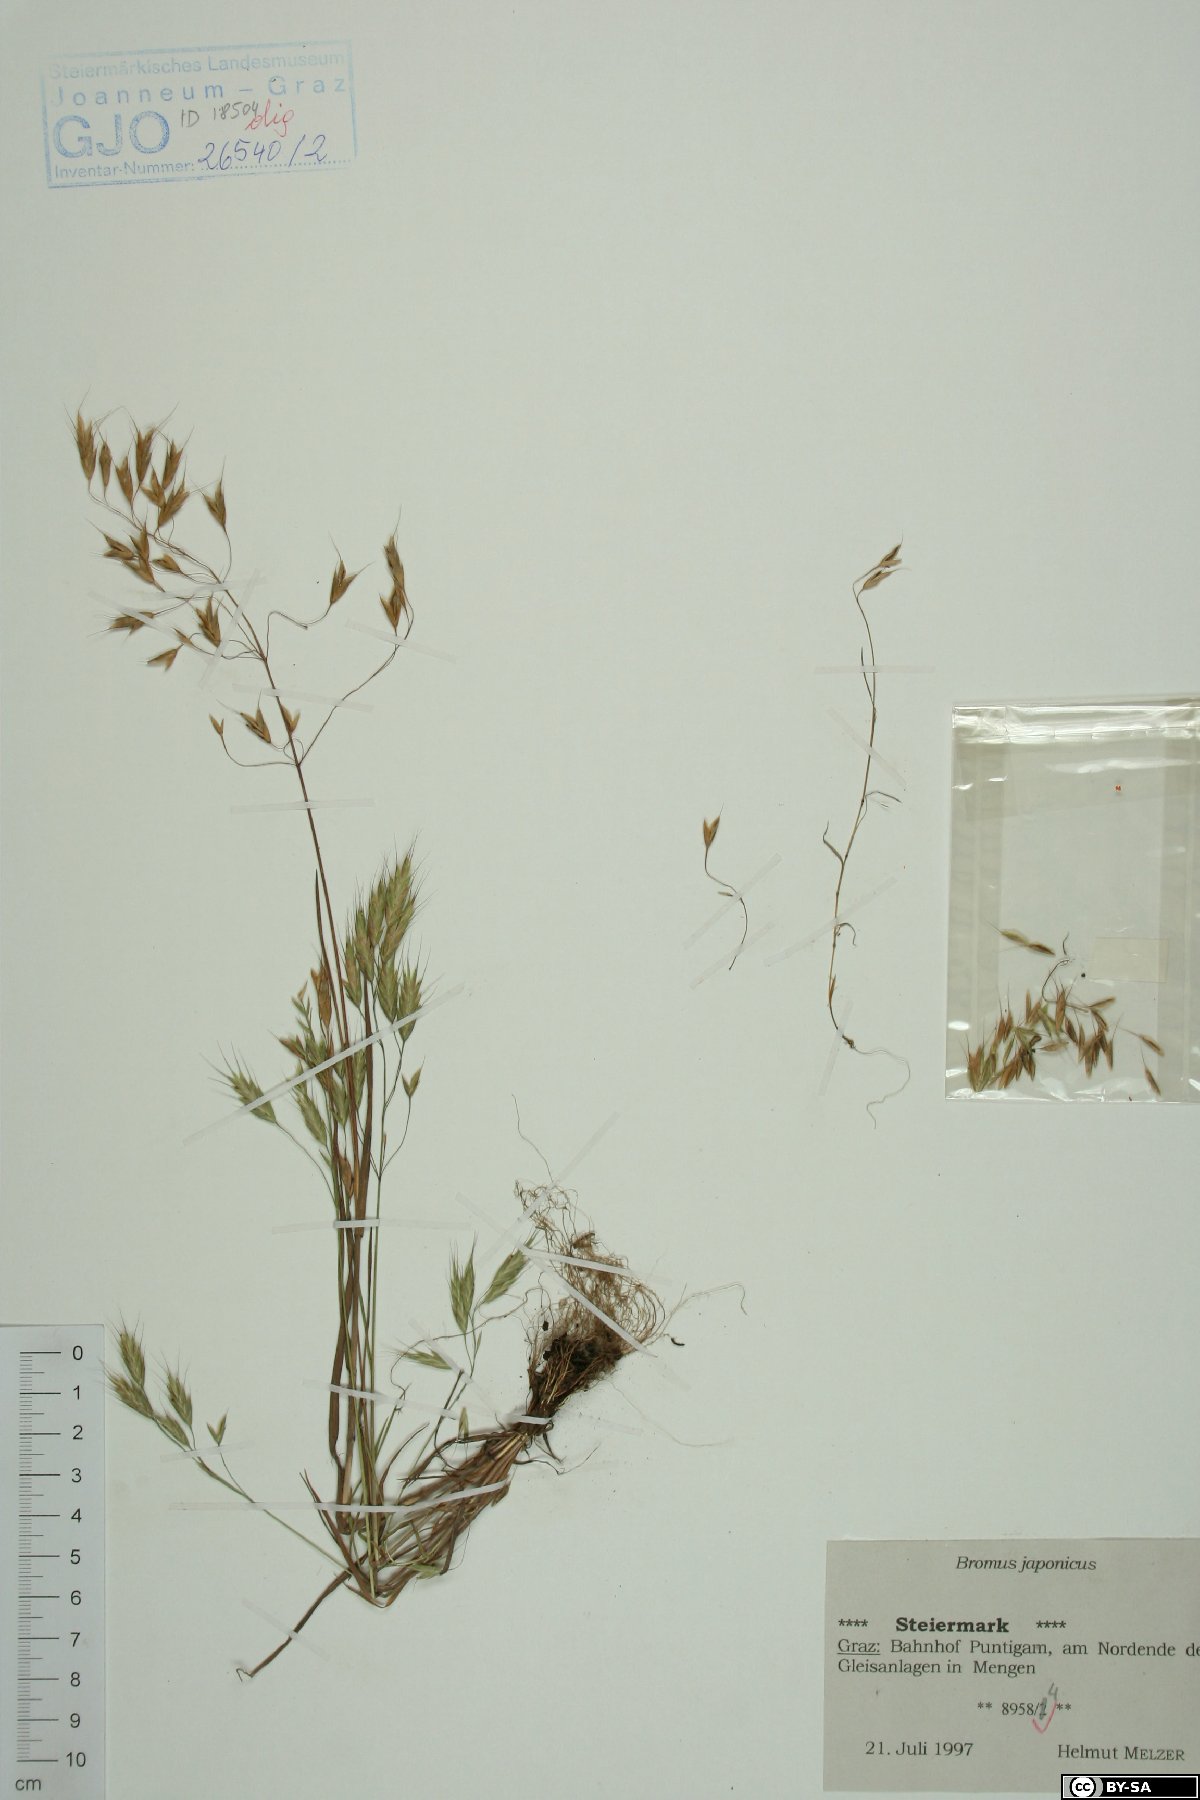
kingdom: Plantae
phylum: Tracheophyta
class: Liliopsida
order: Poales
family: Poaceae
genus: Bromus
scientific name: Bromus japonicus
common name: Japanese brome
